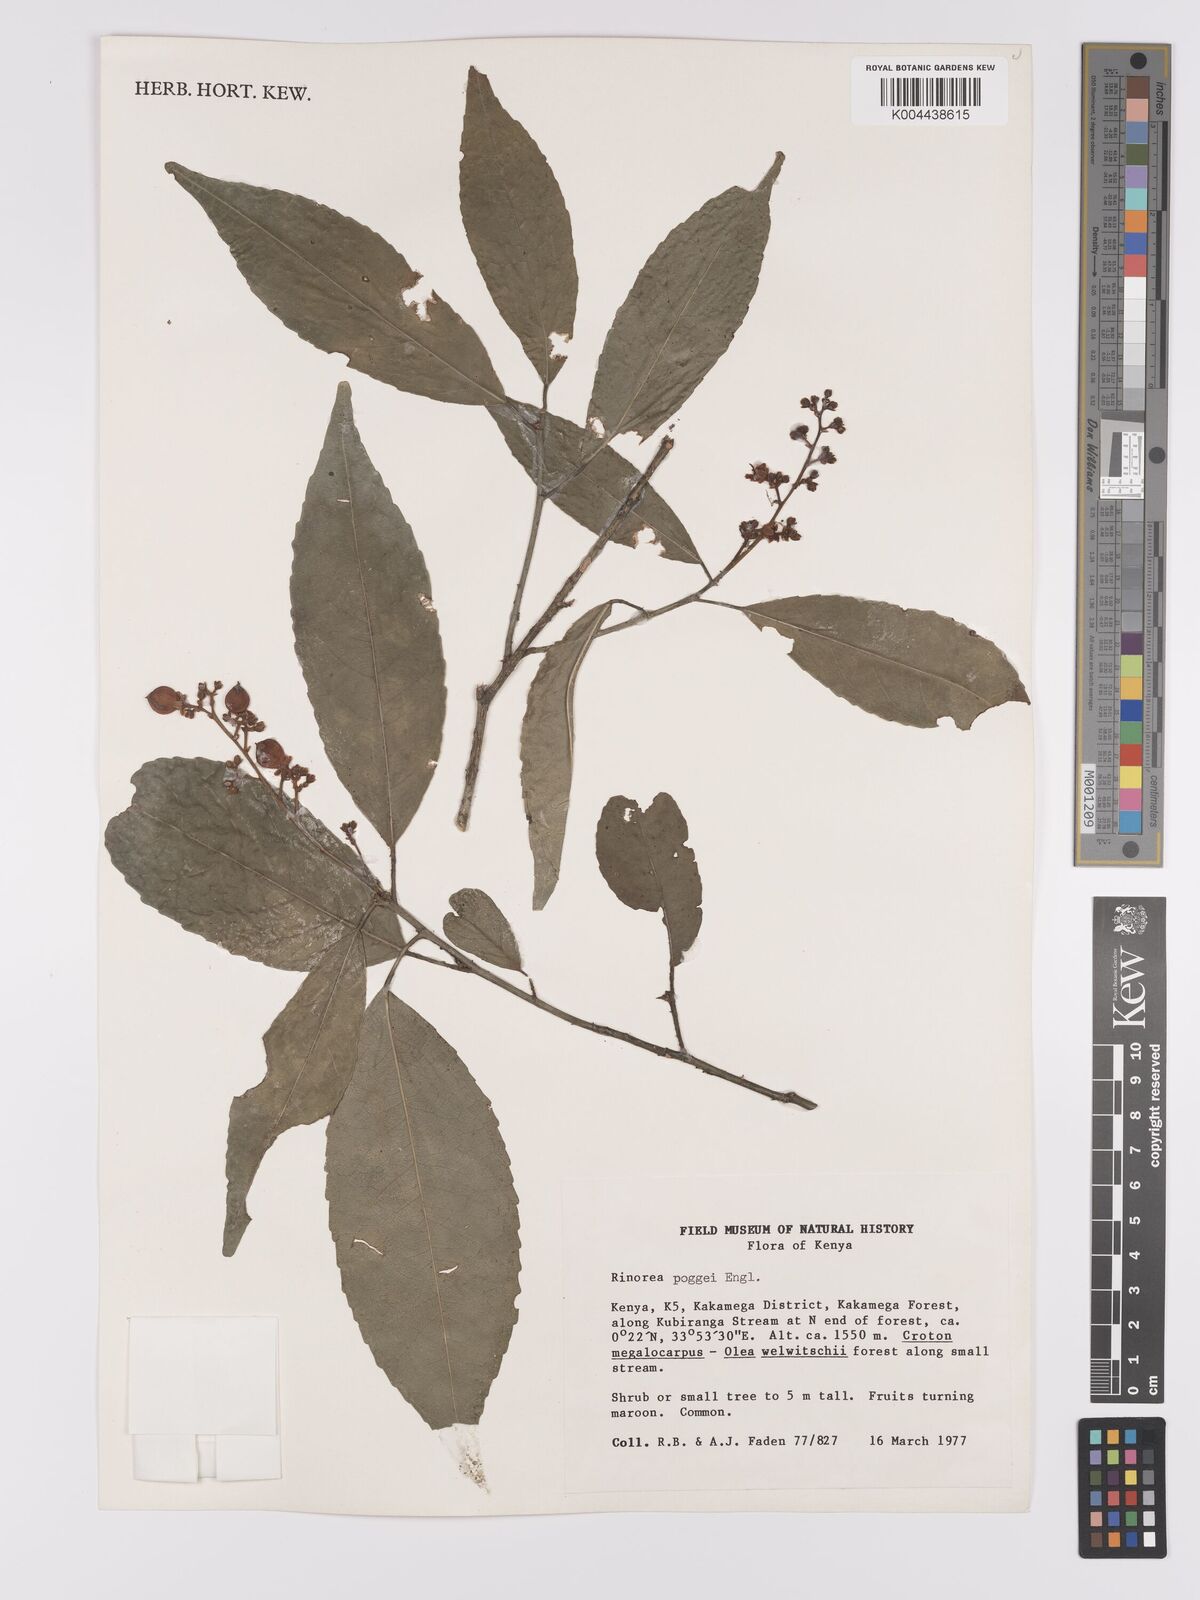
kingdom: Plantae
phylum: Tracheophyta
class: Magnoliopsida
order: Malpighiales
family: Violaceae
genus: Rinorea
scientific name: Rinorea brachypetala
